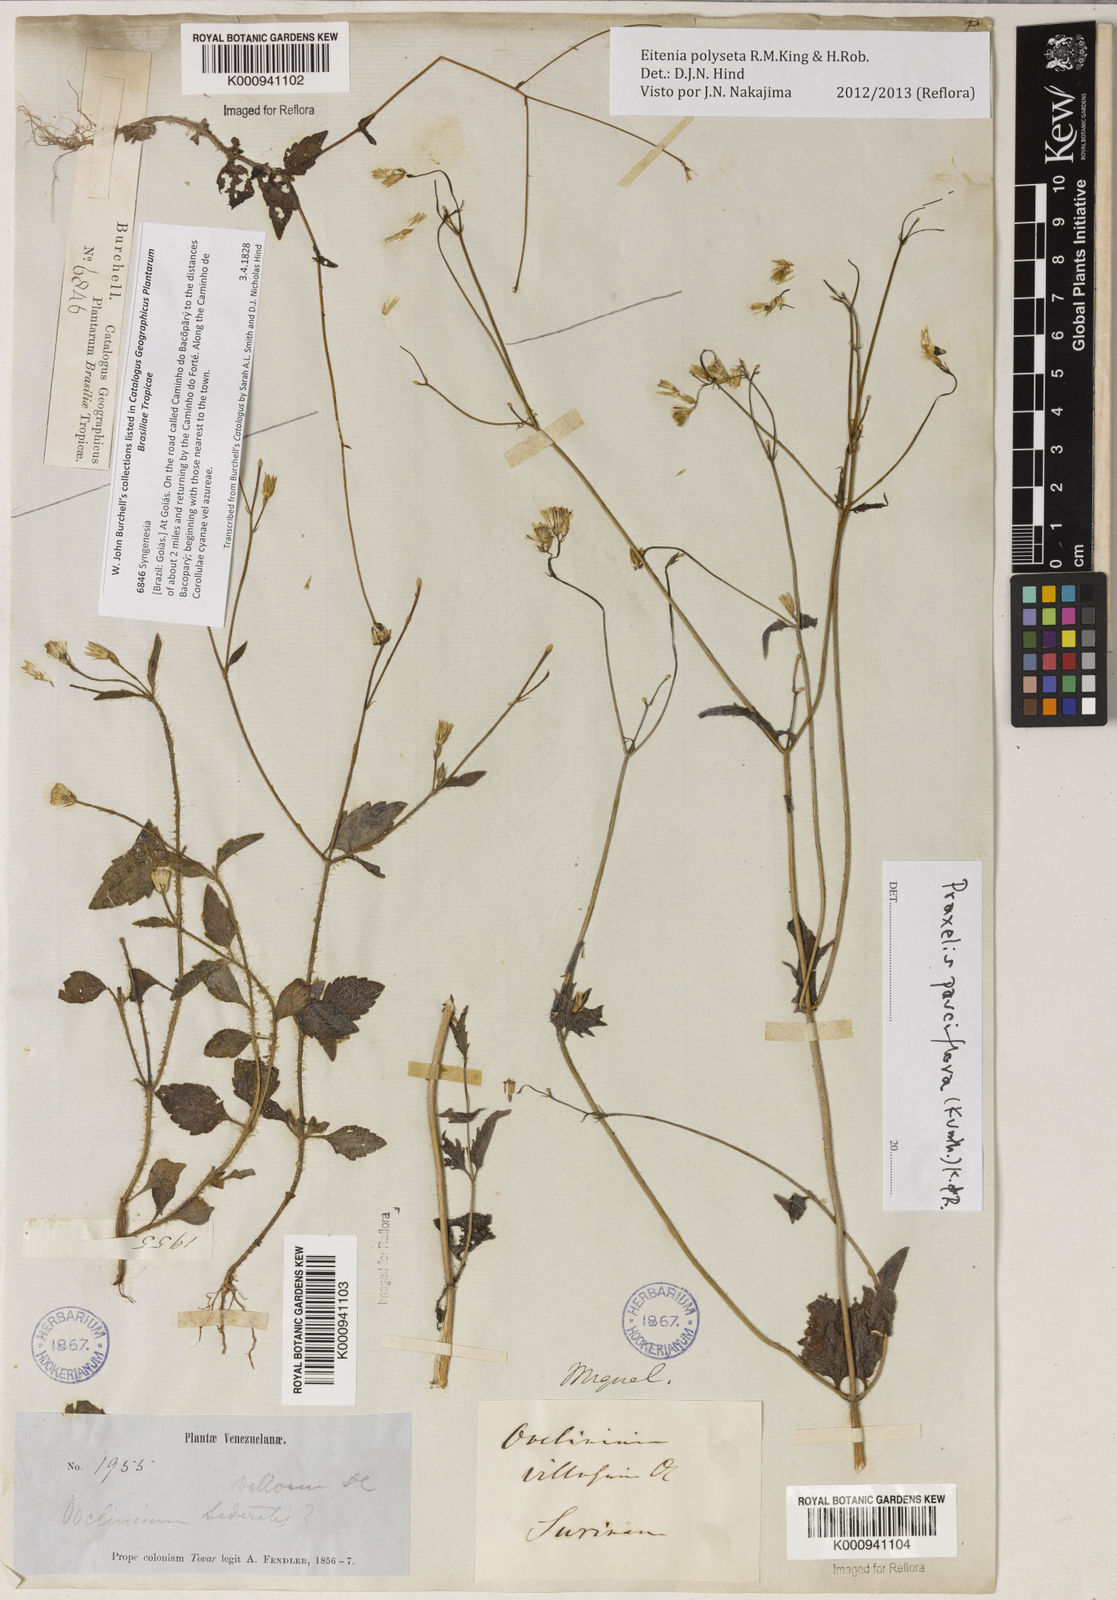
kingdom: Plantae
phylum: Tracheophyta
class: Magnoliopsida
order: Asterales
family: Asteraceae
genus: Eitenia
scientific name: Eitenia polyseta
